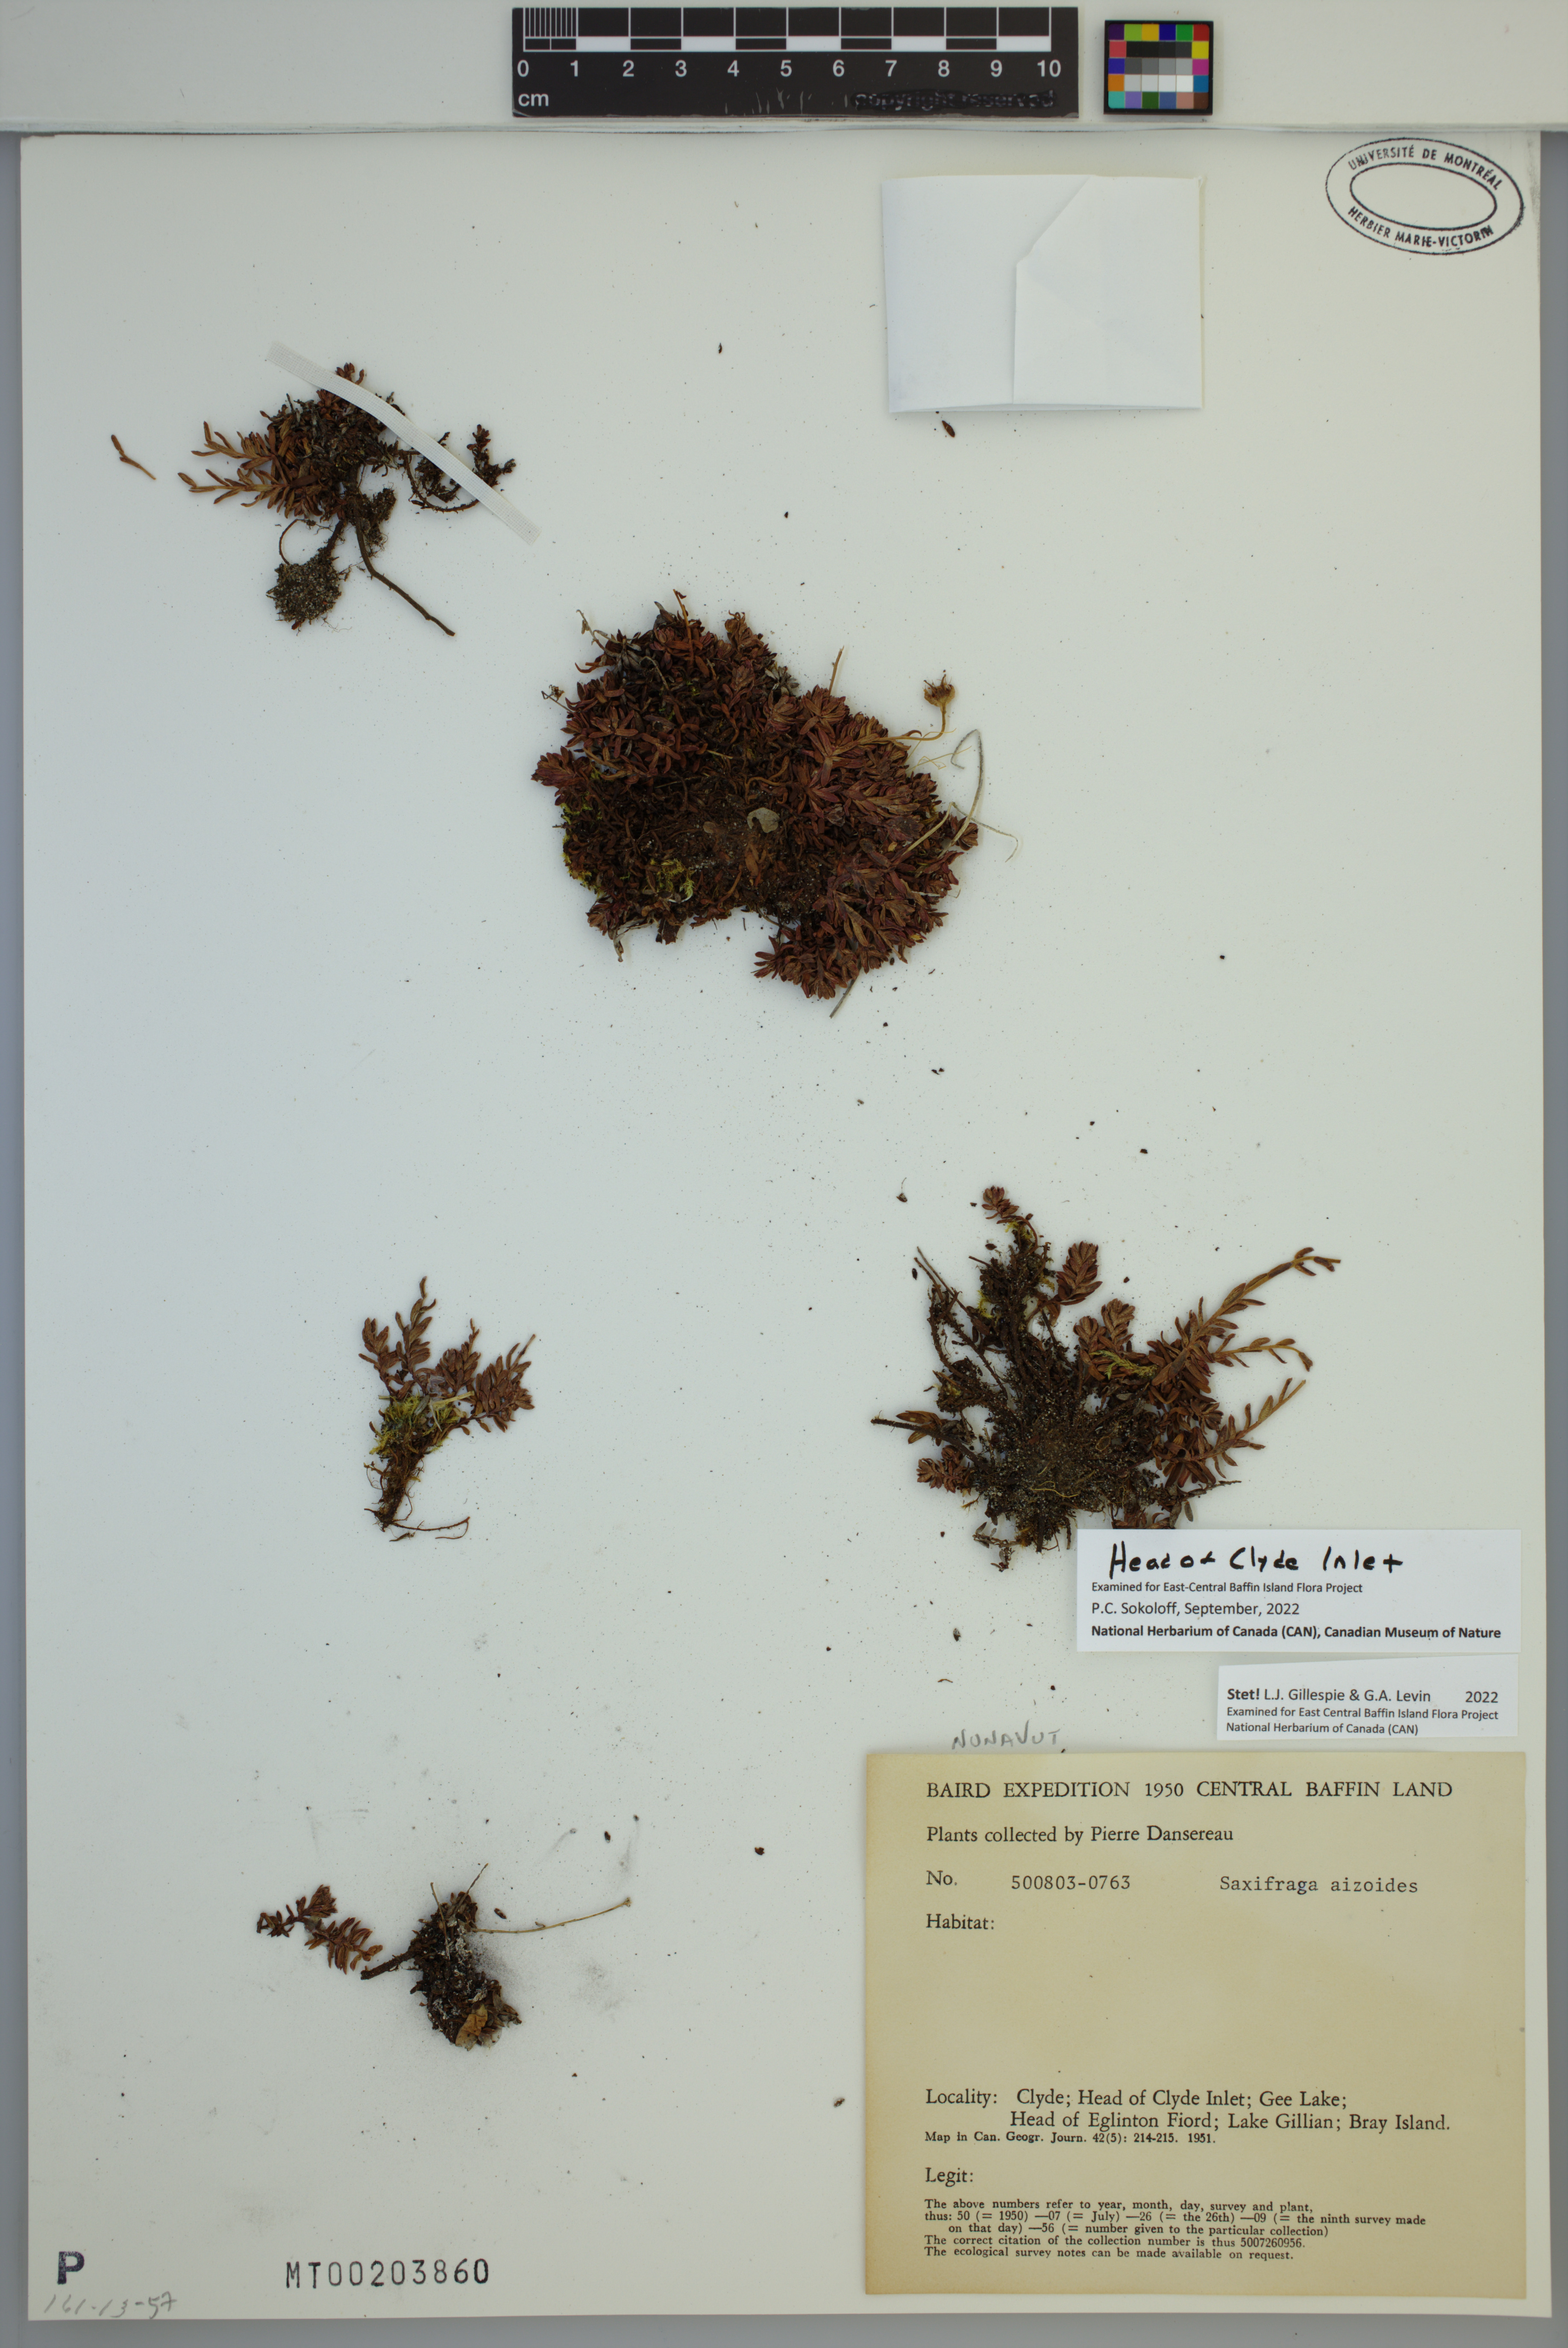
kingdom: Plantae
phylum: Tracheophyta
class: Magnoliopsida
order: Saxifragales
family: Saxifragaceae
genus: Saxifraga
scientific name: Saxifraga aizoides
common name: Yellow mountain saxifrage
